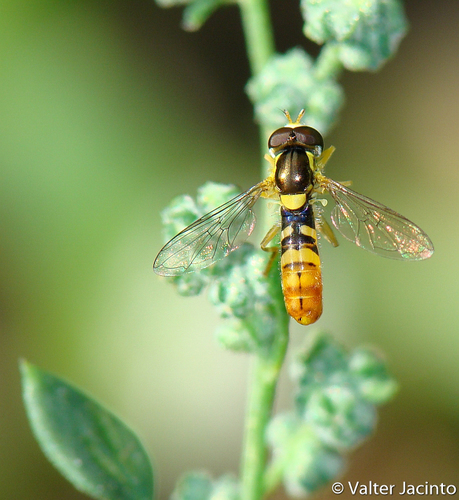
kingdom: Animalia
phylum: Arthropoda
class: Insecta
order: Diptera
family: Syrphidae
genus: Sphaerophoria
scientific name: Sphaerophoria rueppellii
